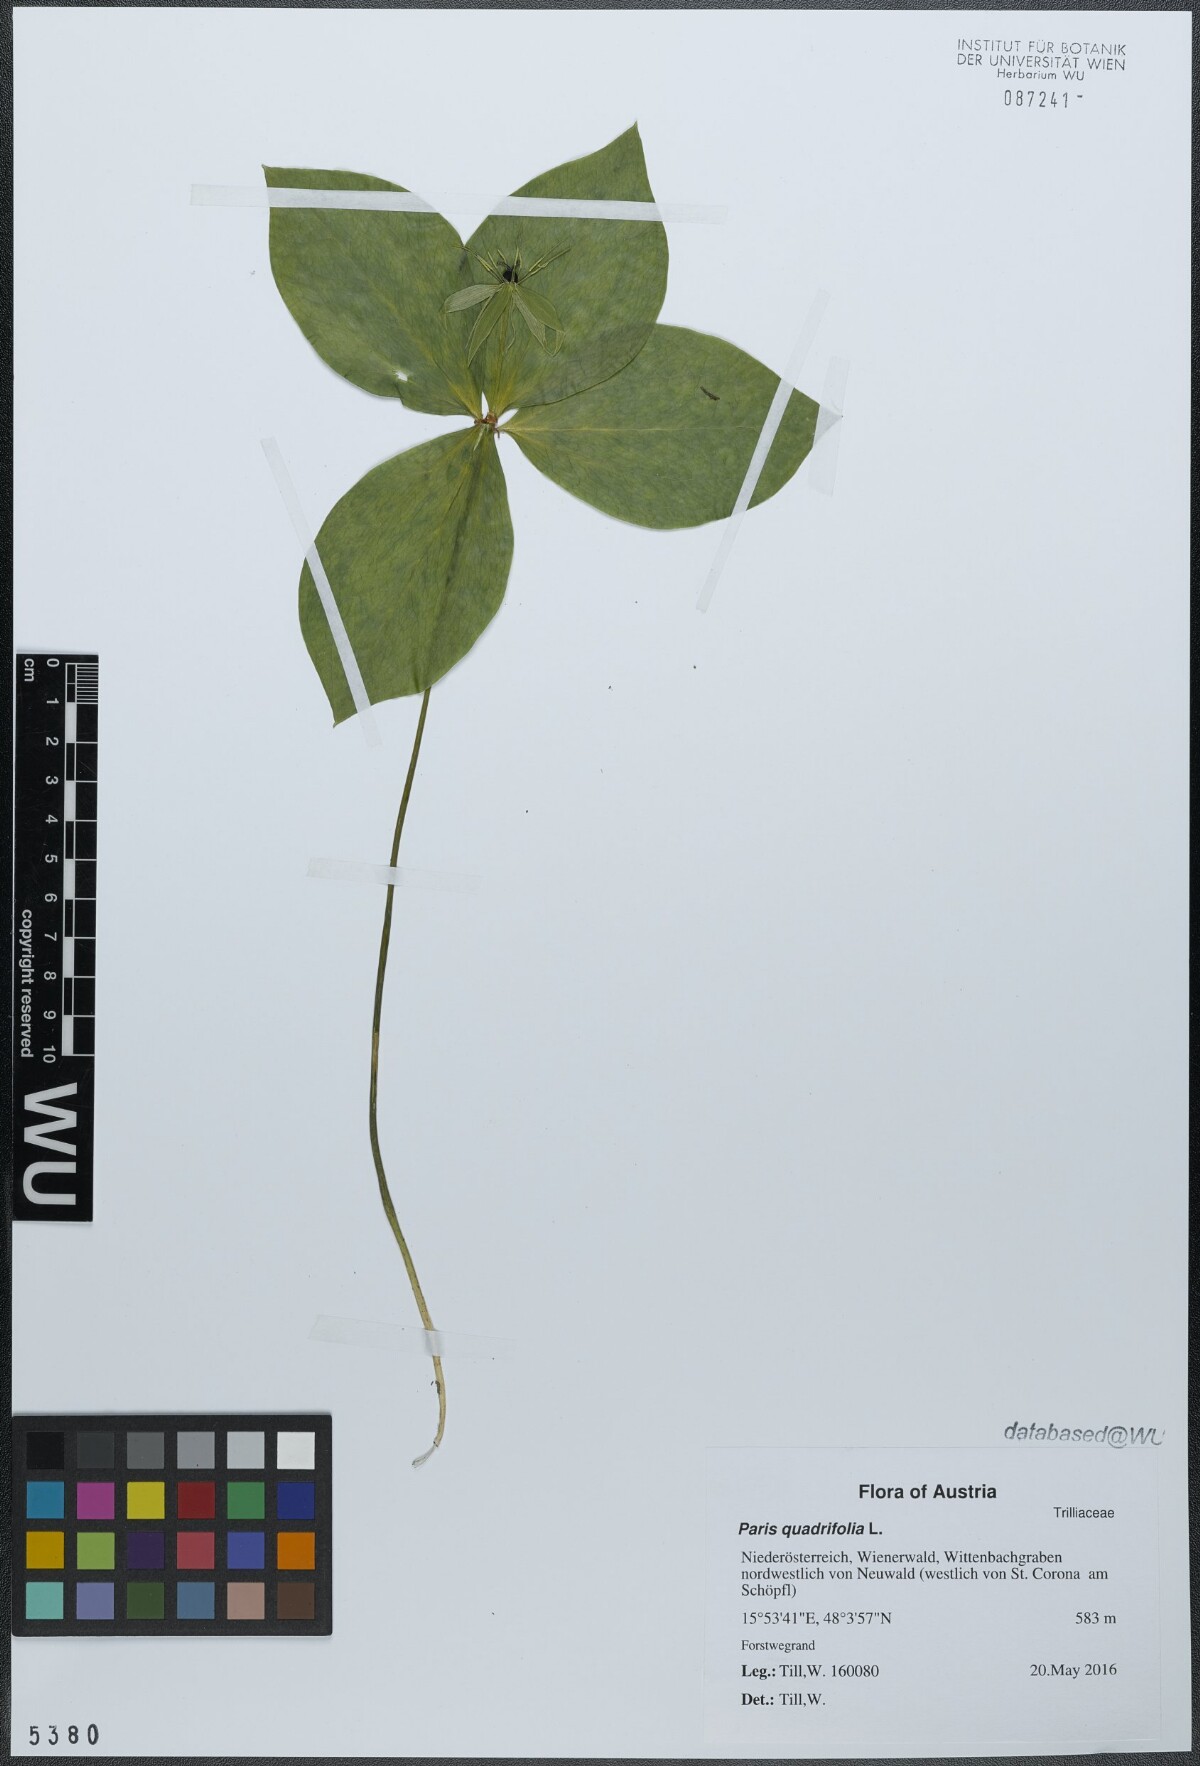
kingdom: Plantae
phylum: Tracheophyta
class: Liliopsida
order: Liliales
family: Melanthiaceae
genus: Paris
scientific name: Paris quadrifolia
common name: Herb-paris
